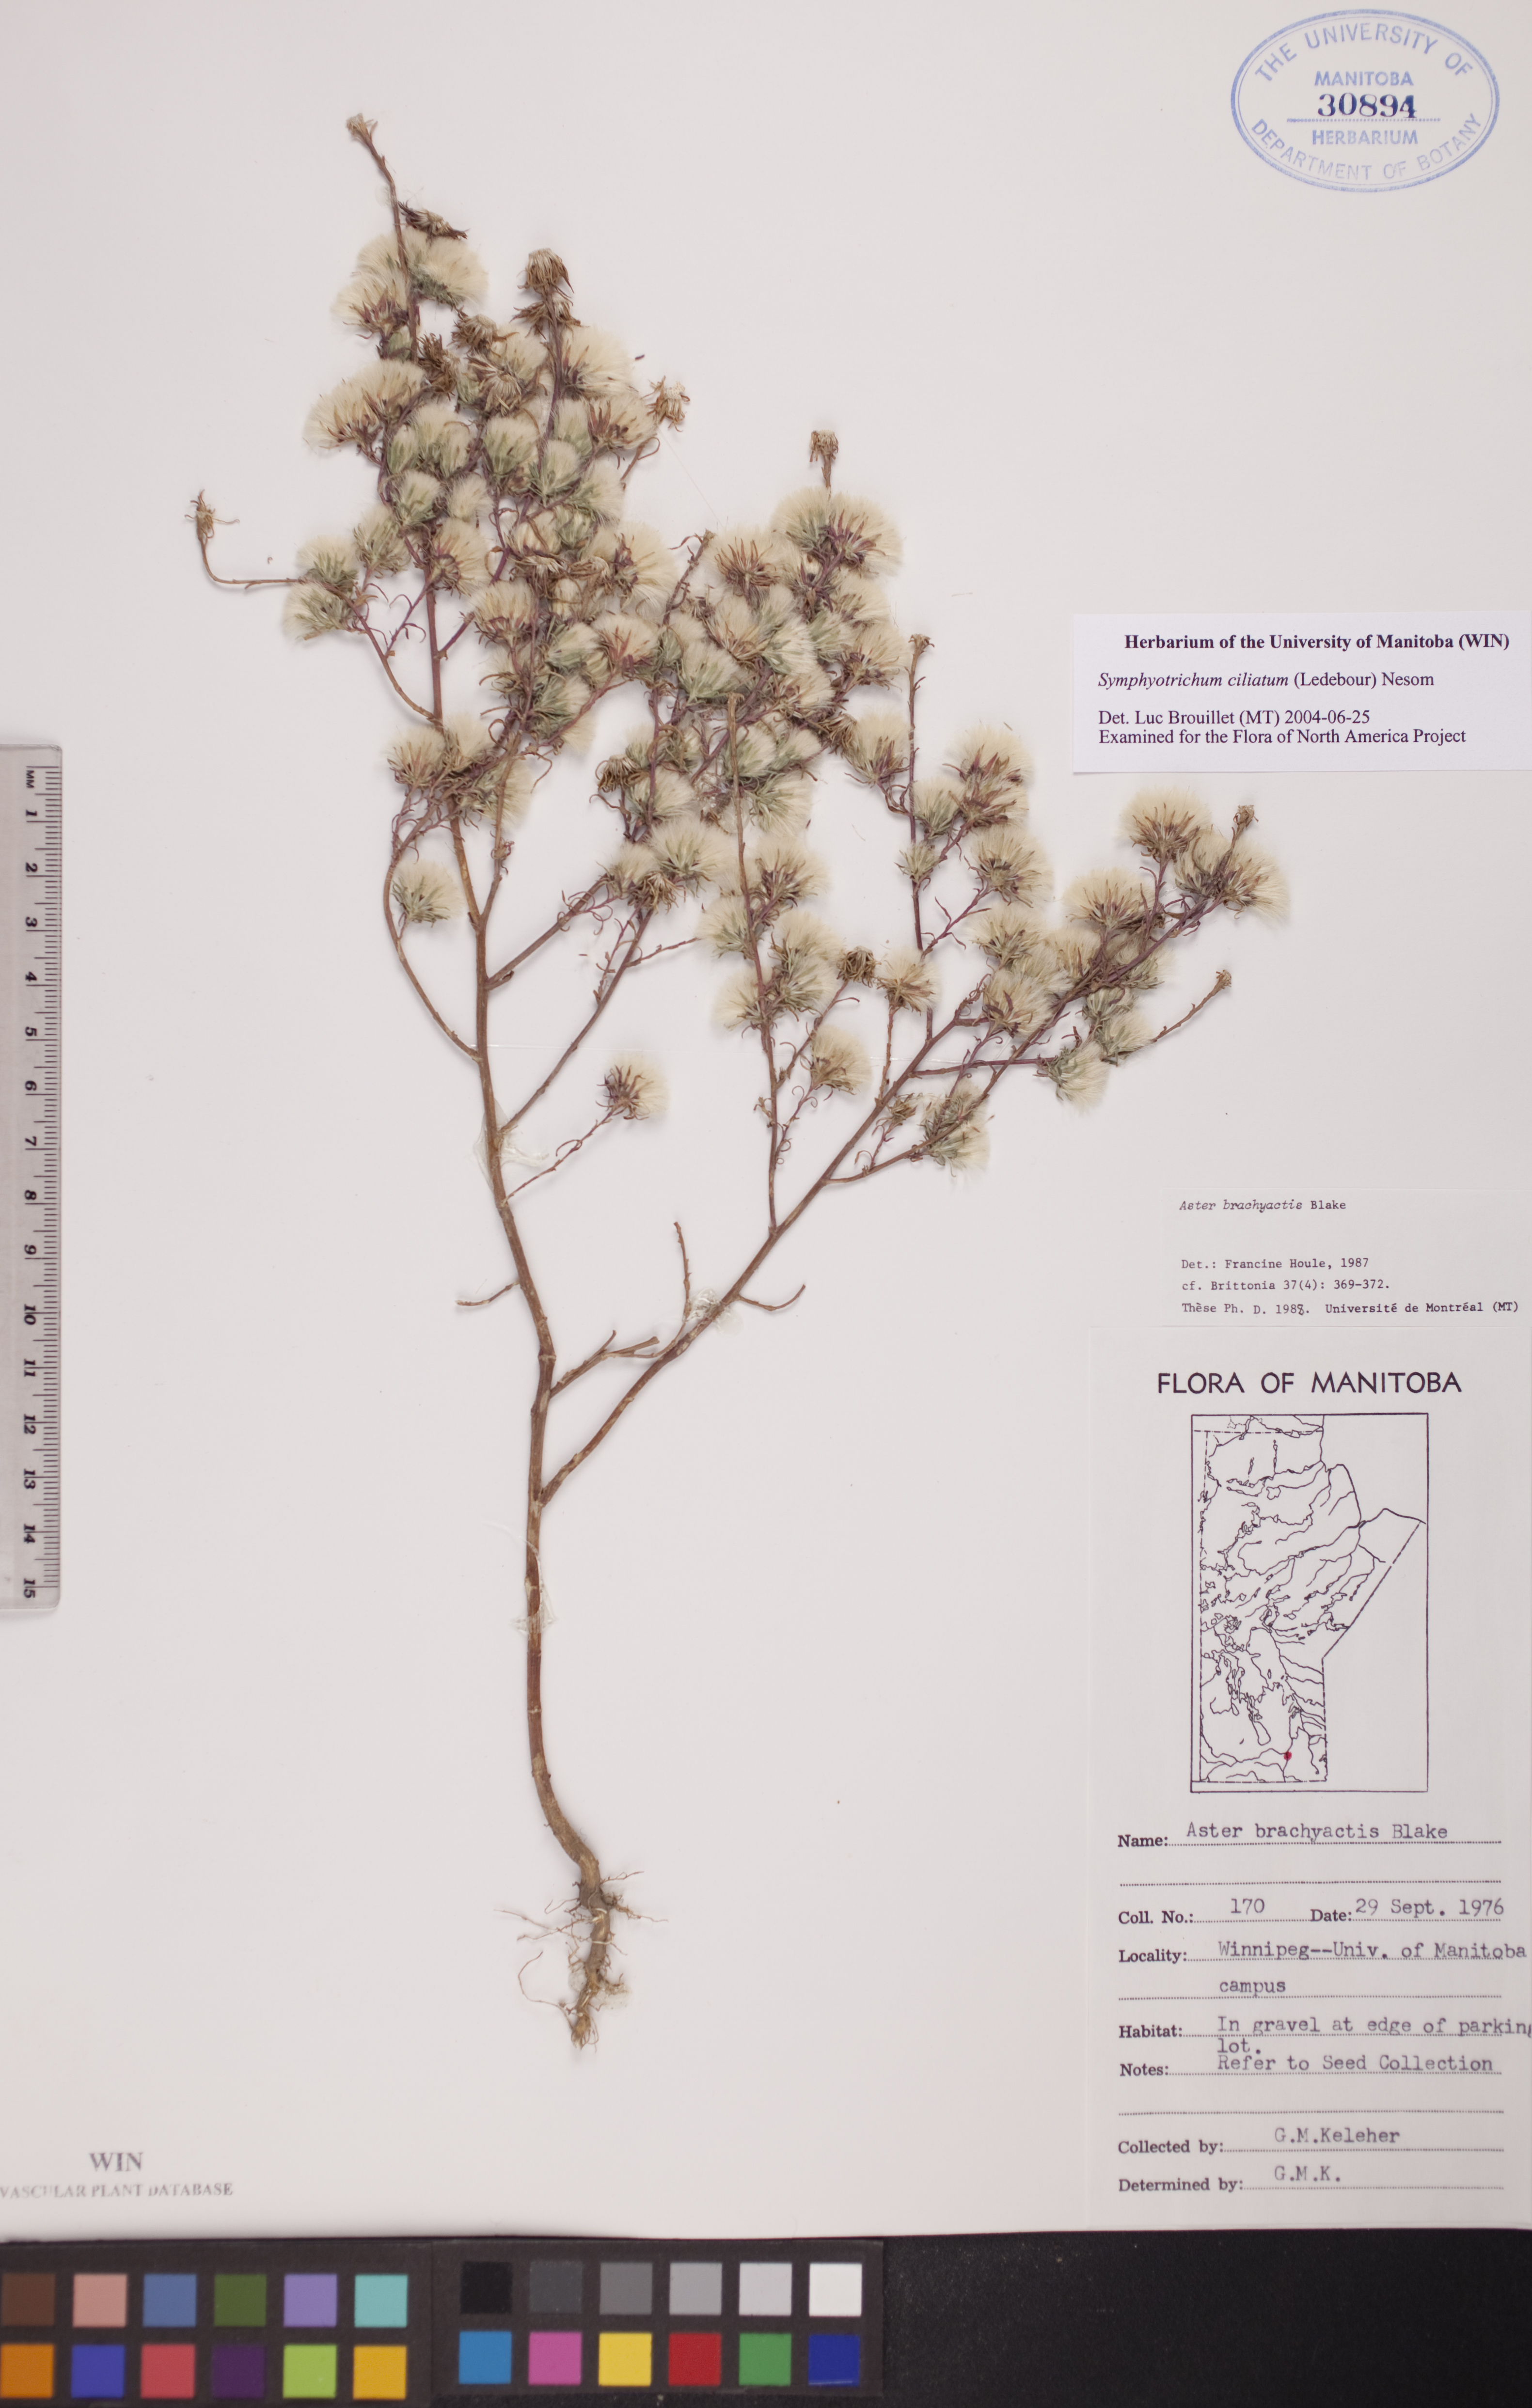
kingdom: Plantae
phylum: Tracheophyta
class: Magnoliopsida
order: Asterales
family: Asteraceae
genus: Symphyotrichum
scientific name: Symphyotrichum ciliatum
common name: Rayless annual aster
